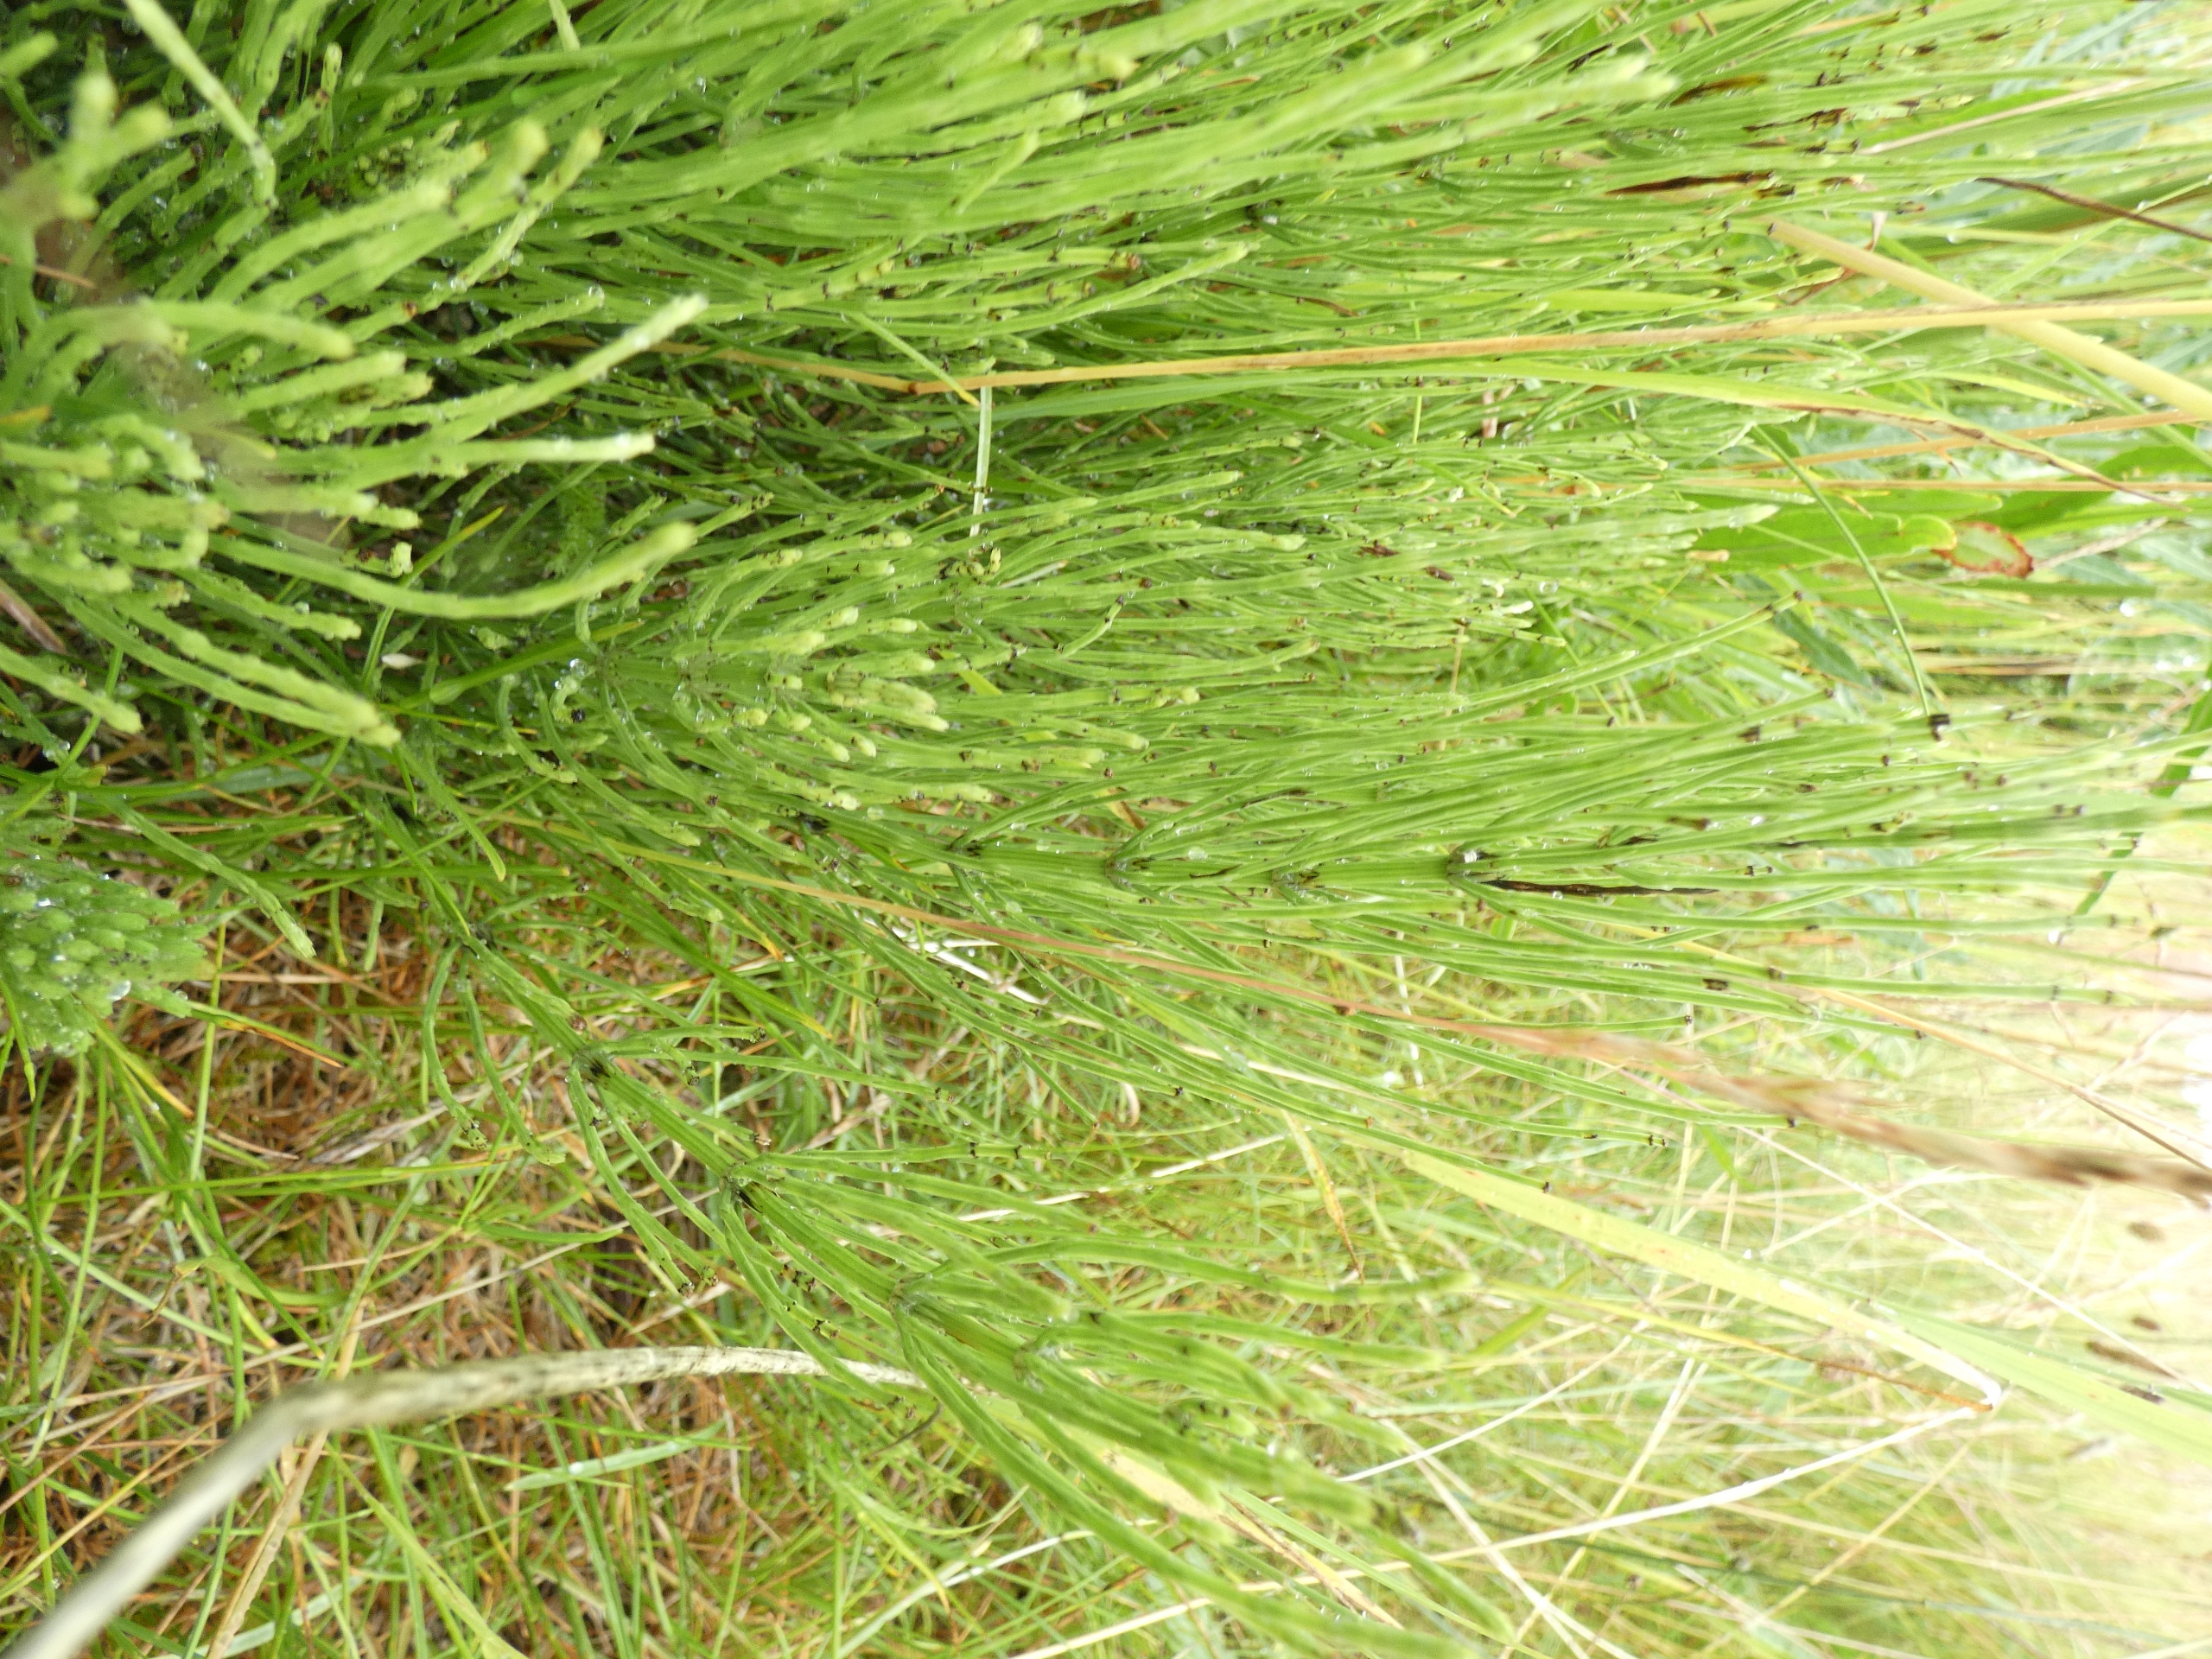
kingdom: Plantae
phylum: Tracheophyta
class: Polypodiopsida
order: Equisetales
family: Equisetaceae
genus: Equisetum
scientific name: Equisetum arvense
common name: Ager-padderok
